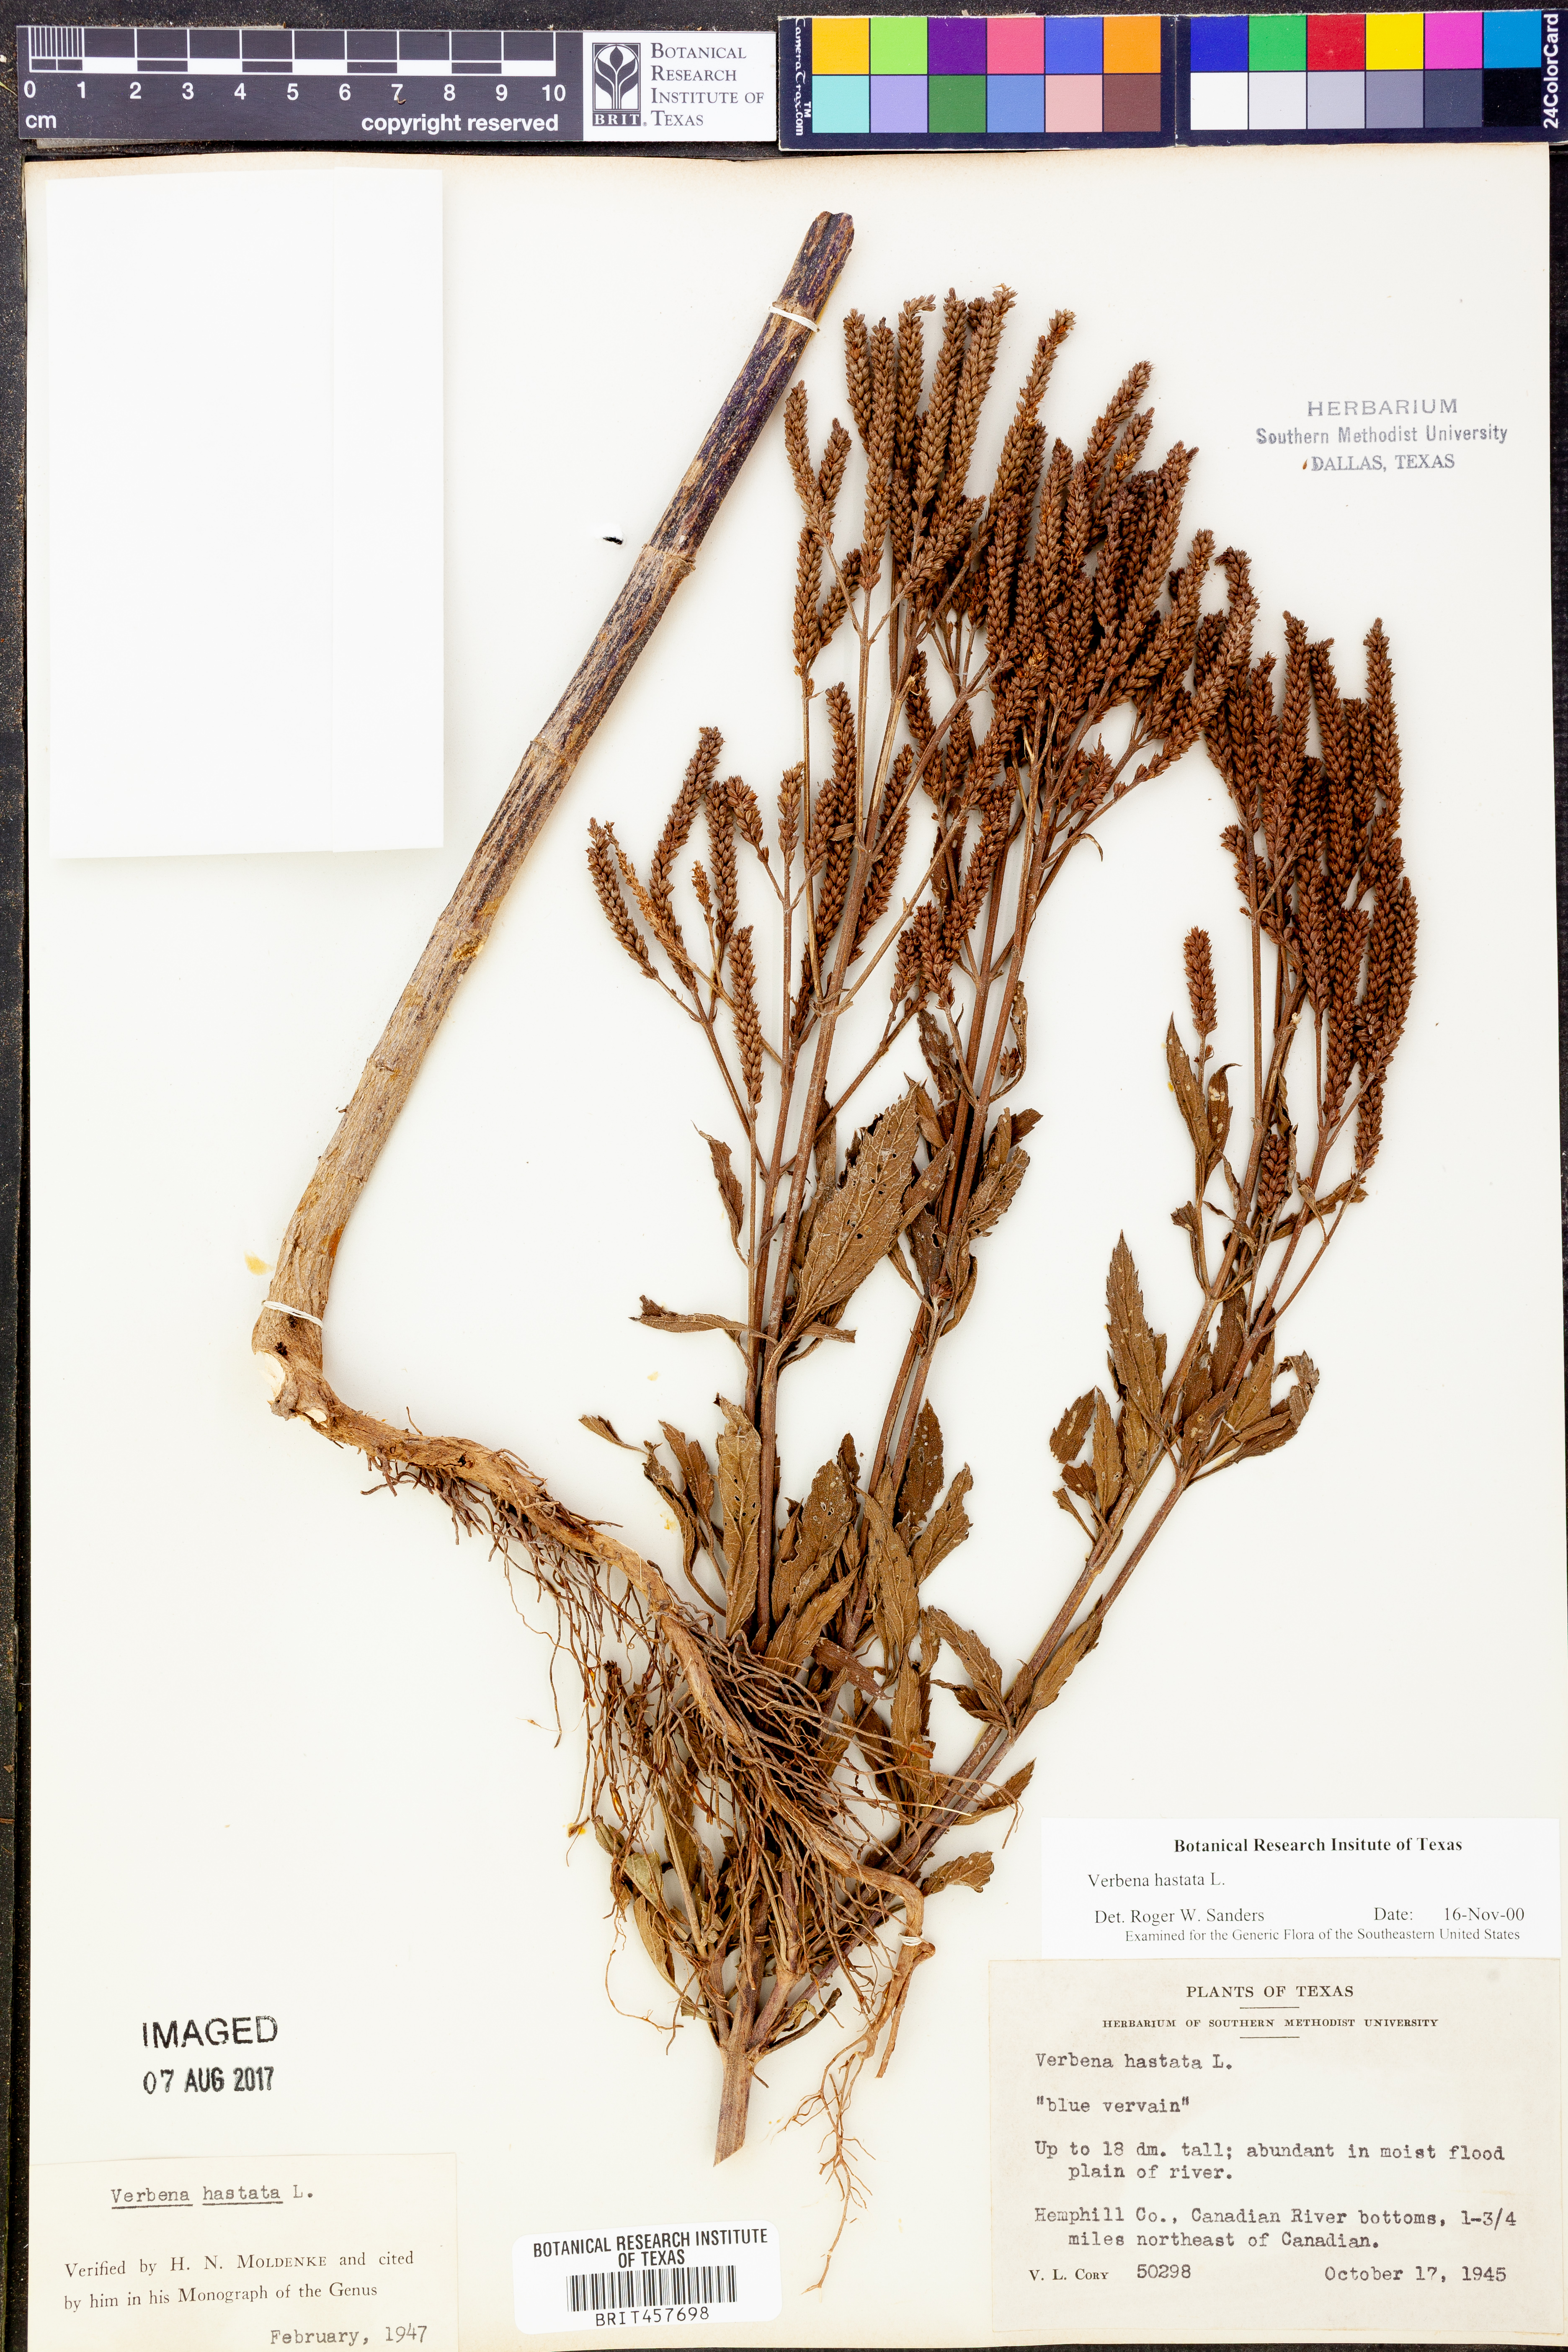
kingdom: Plantae
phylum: Tracheophyta
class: Magnoliopsida
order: Lamiales
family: Verbenaceae
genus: Verbena
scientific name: Verbena hastata
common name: American blue vervain
